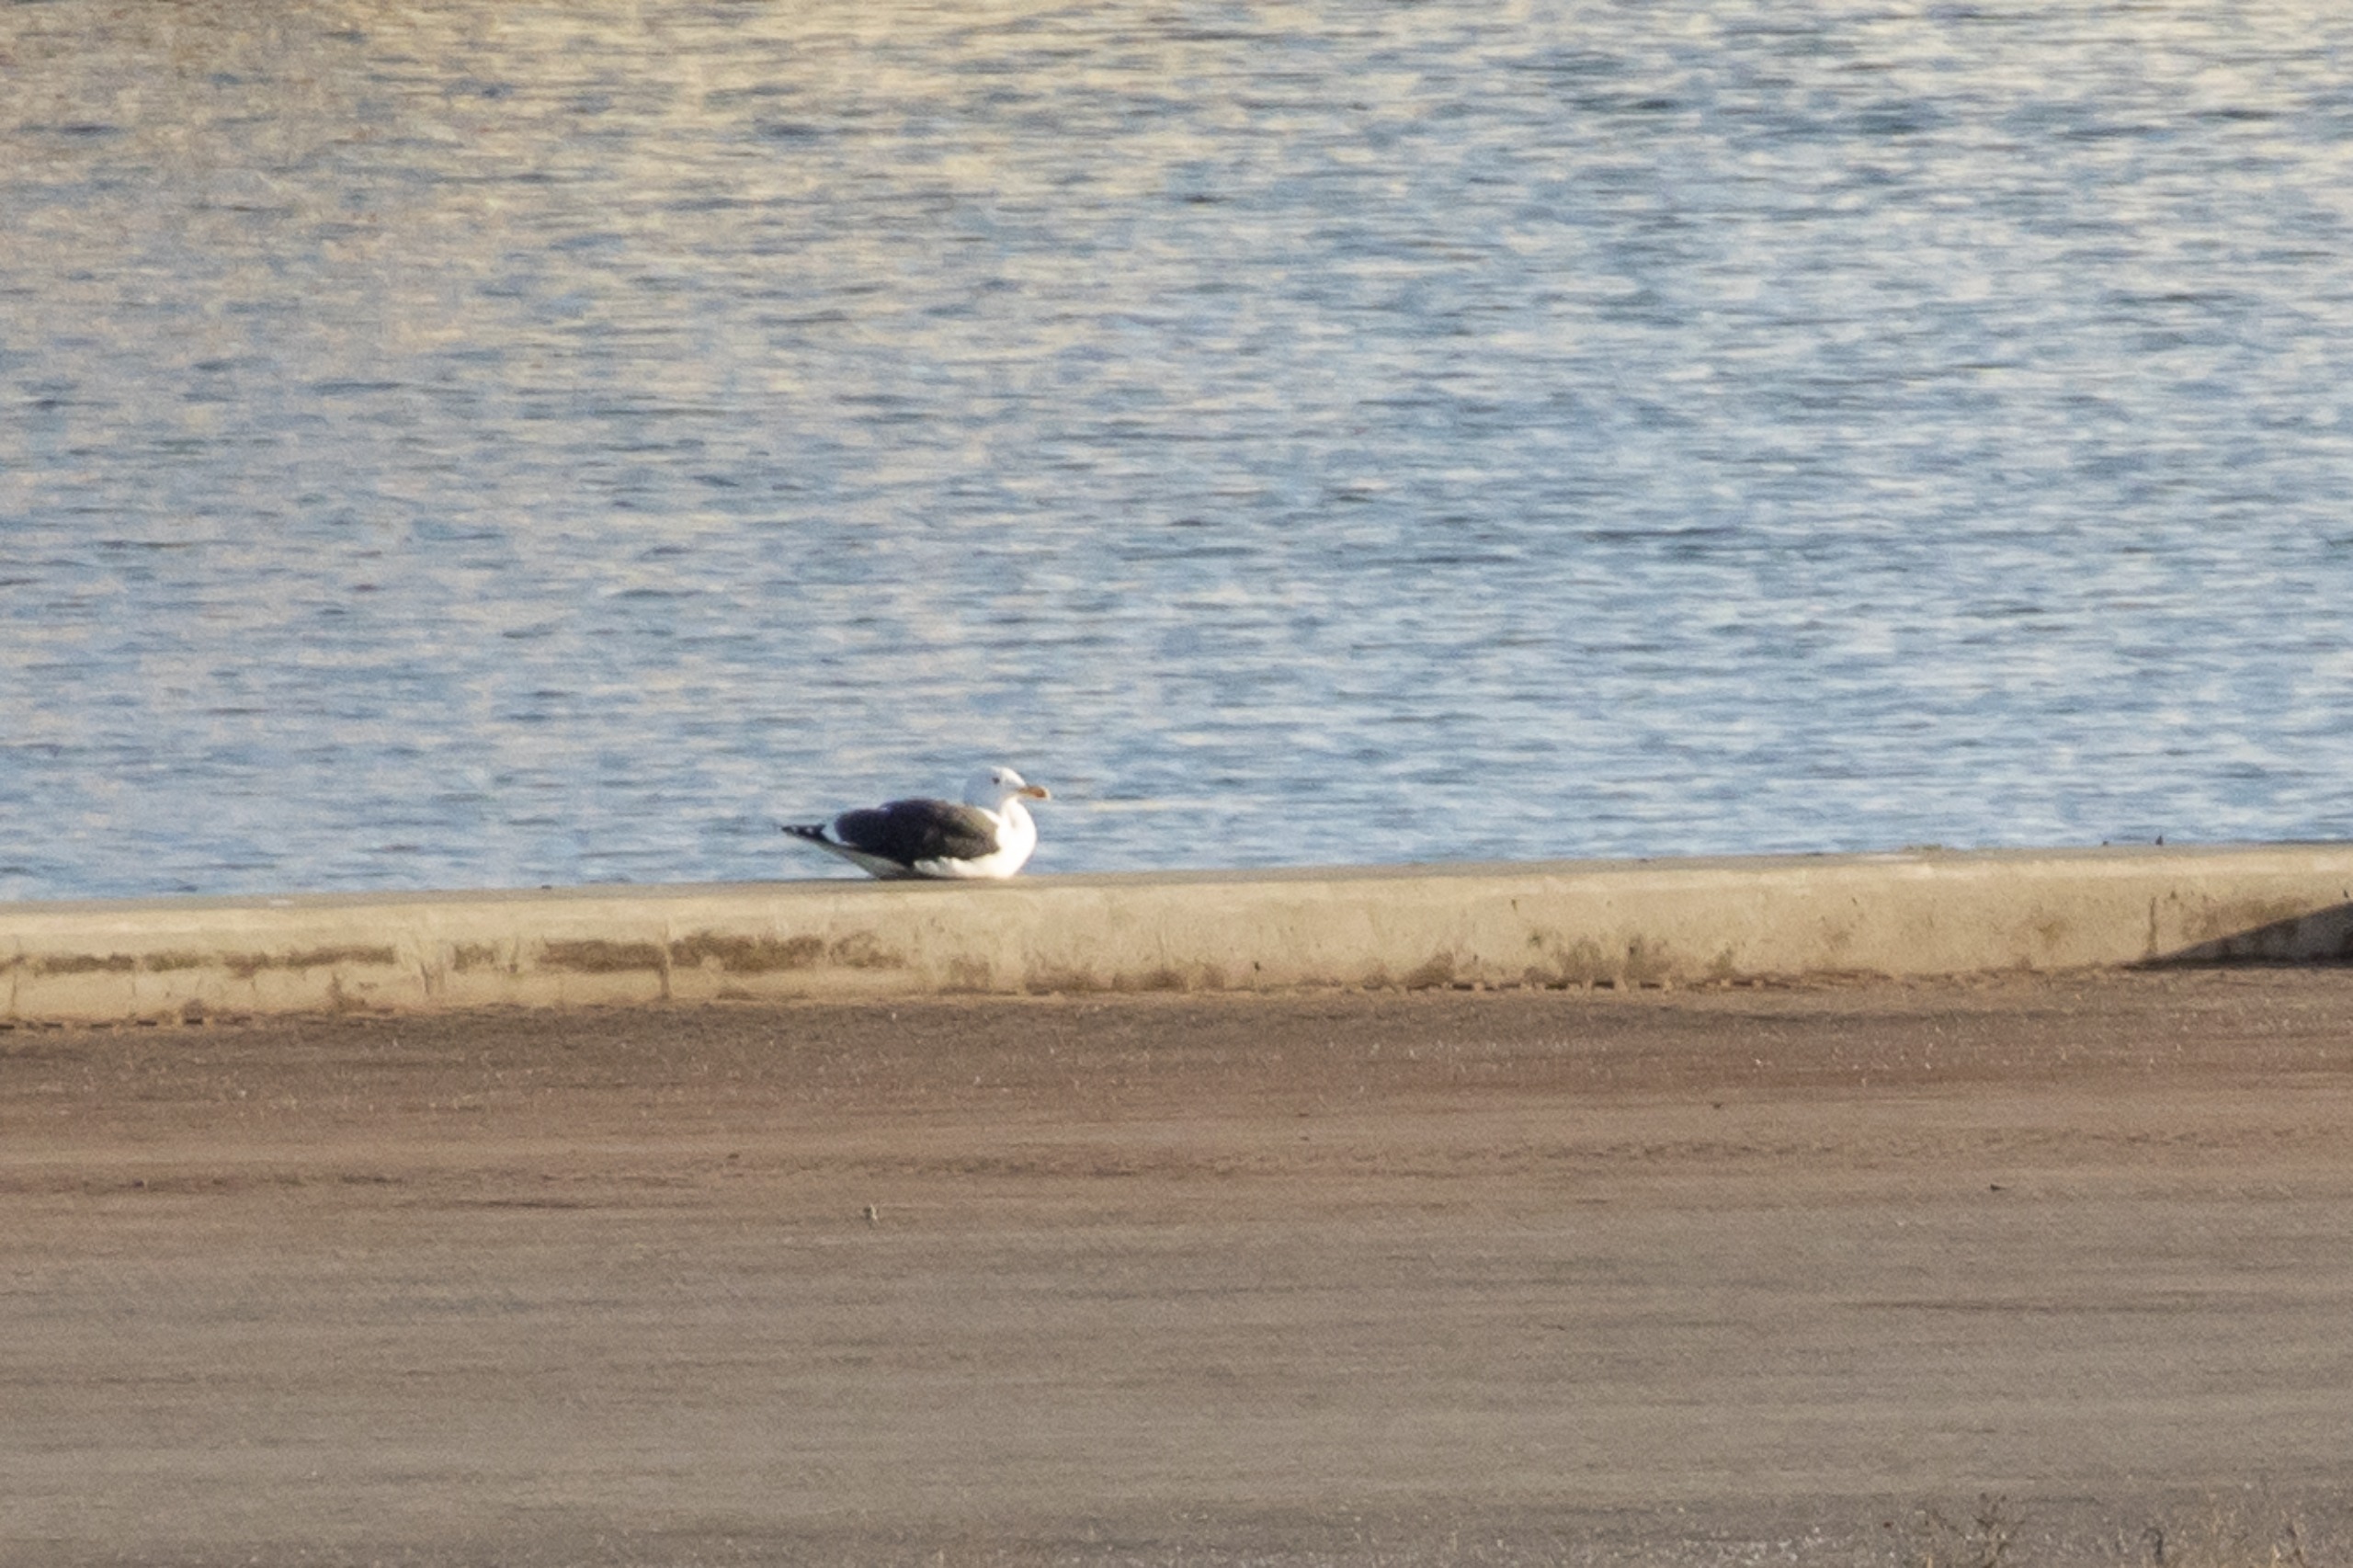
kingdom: Animalia
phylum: Chordata
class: Aves
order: Charadriiformes
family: Laridae
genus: Larus
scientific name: Larus marinus
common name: Svartbag
